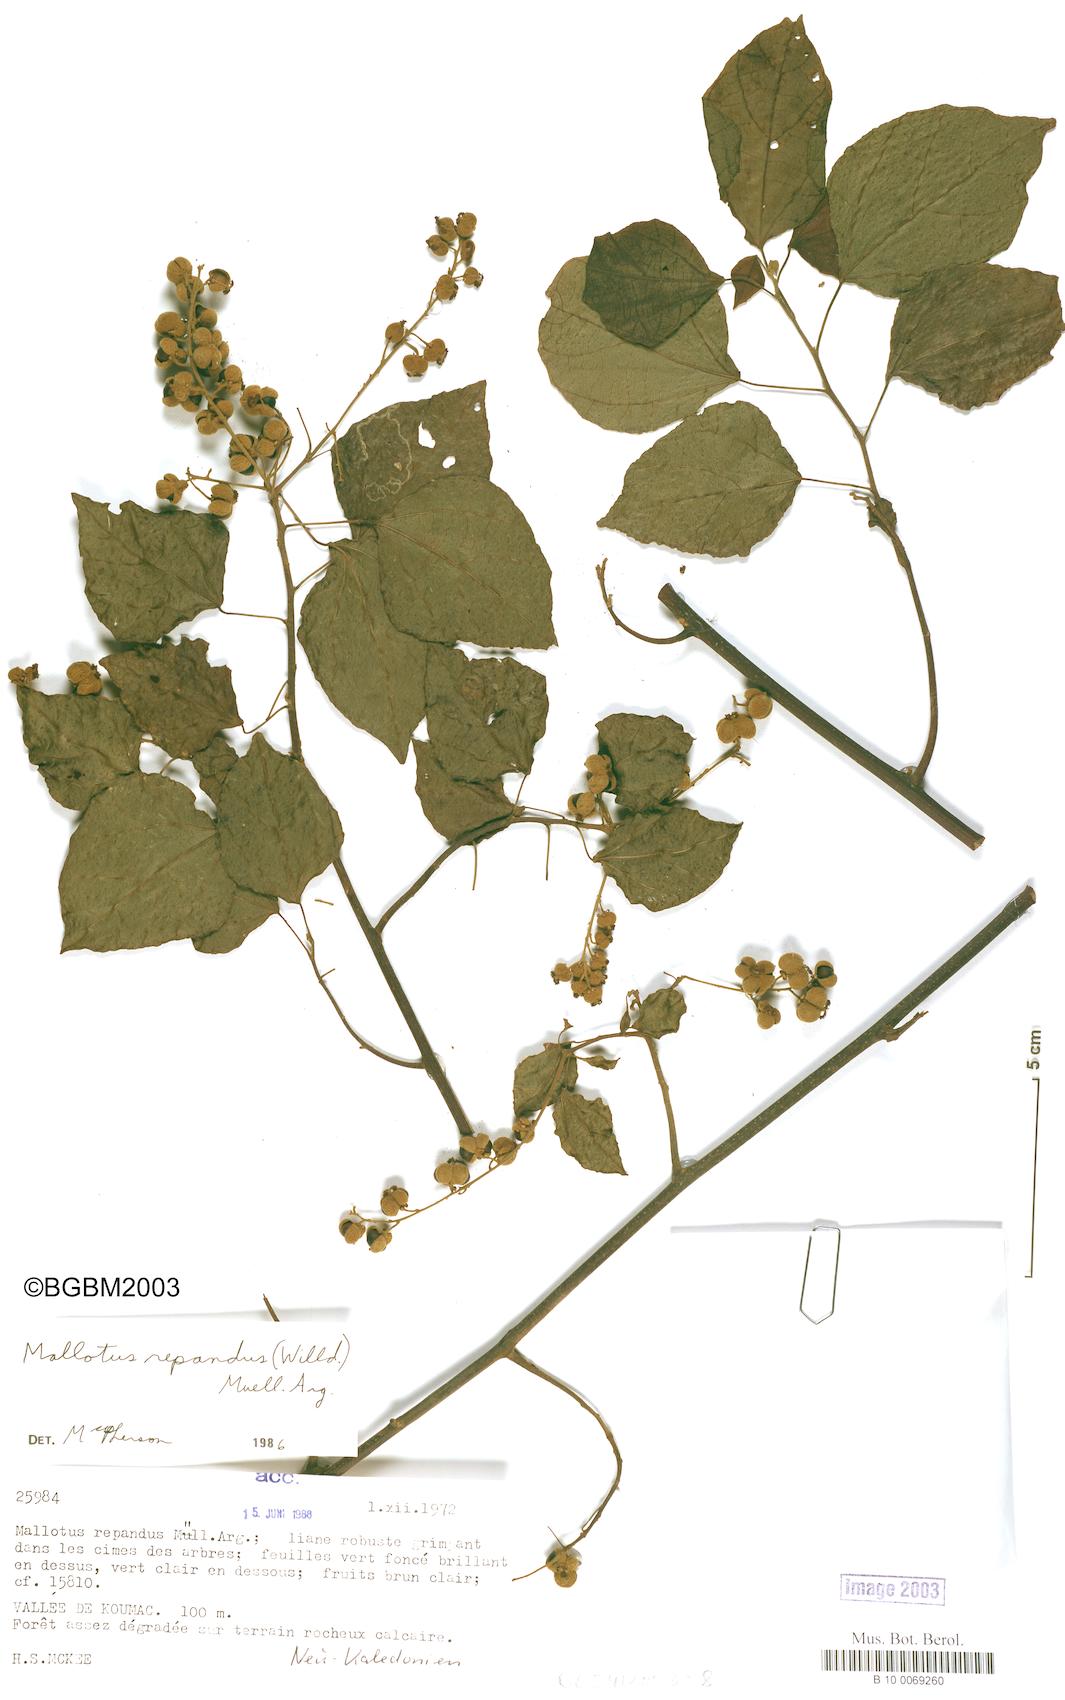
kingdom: Plantae
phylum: Tracheophyta
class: Magnoliopsida
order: Malpighiales
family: Euphorbiaceae
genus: Mallotus
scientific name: Mallotus repandus
